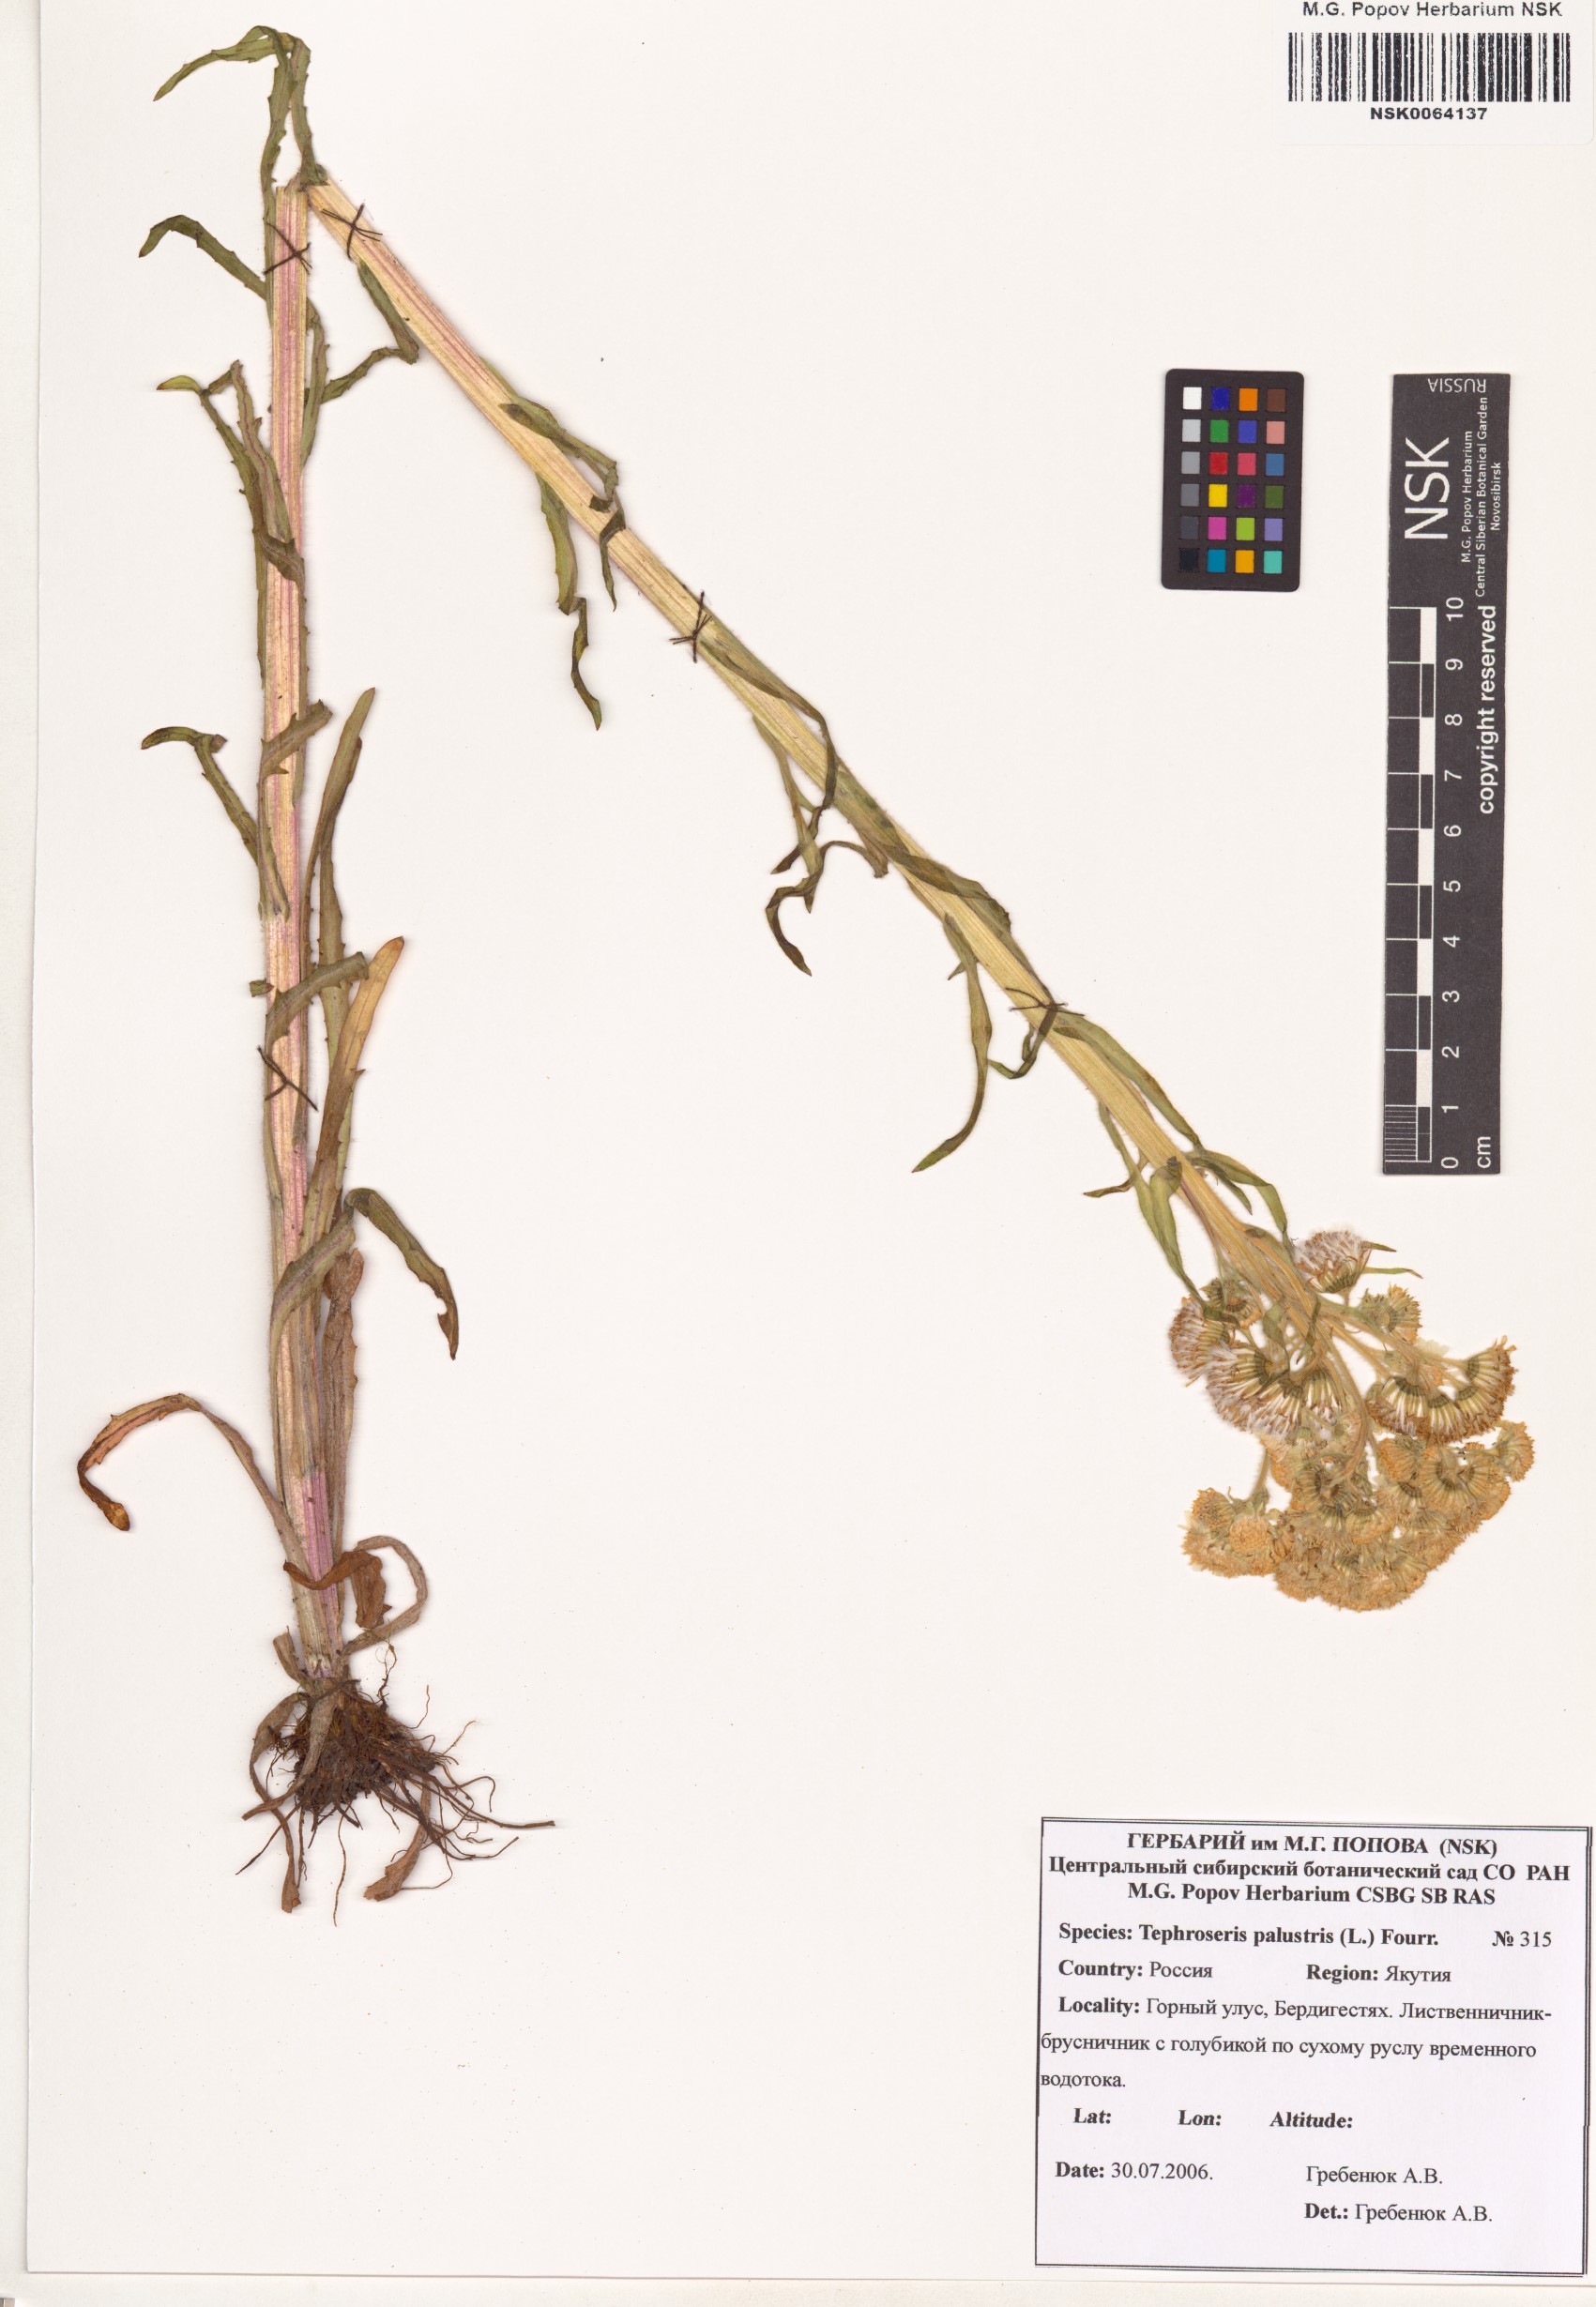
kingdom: Plantae
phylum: Tracheophyta
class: Magnoliopsida
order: Asterales
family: Asteraceae
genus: Tephroseris
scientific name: Tephroseris palustris
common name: Marsh fleawort
